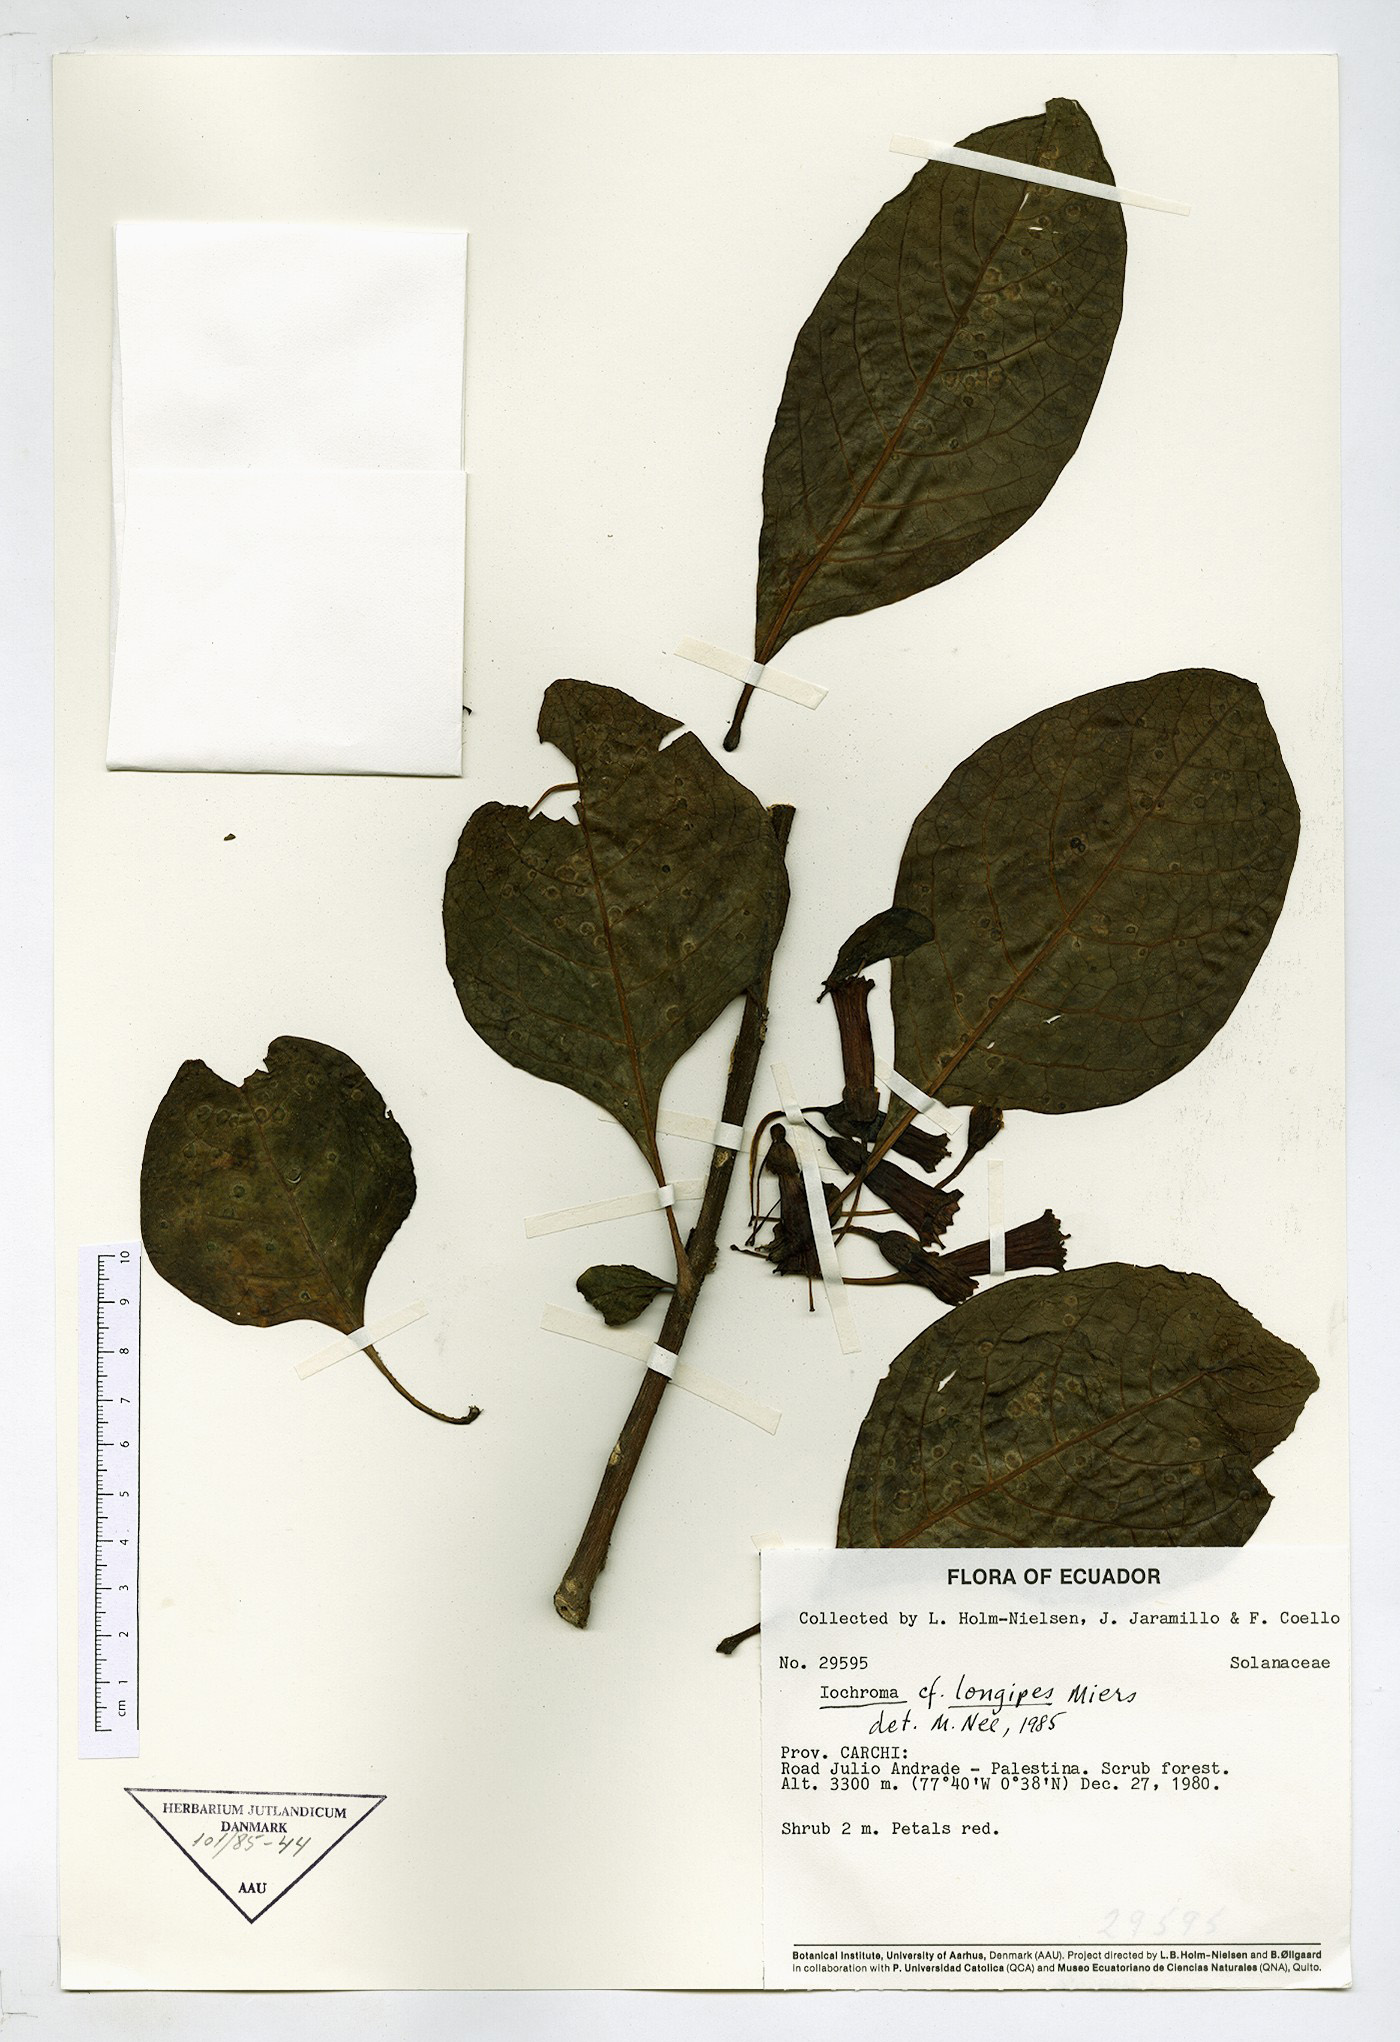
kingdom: Plantae
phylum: Tracheophyta
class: Magnoliopsida
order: Solanales
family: Solanaceae
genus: Iochroma
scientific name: Iochroma longipes
